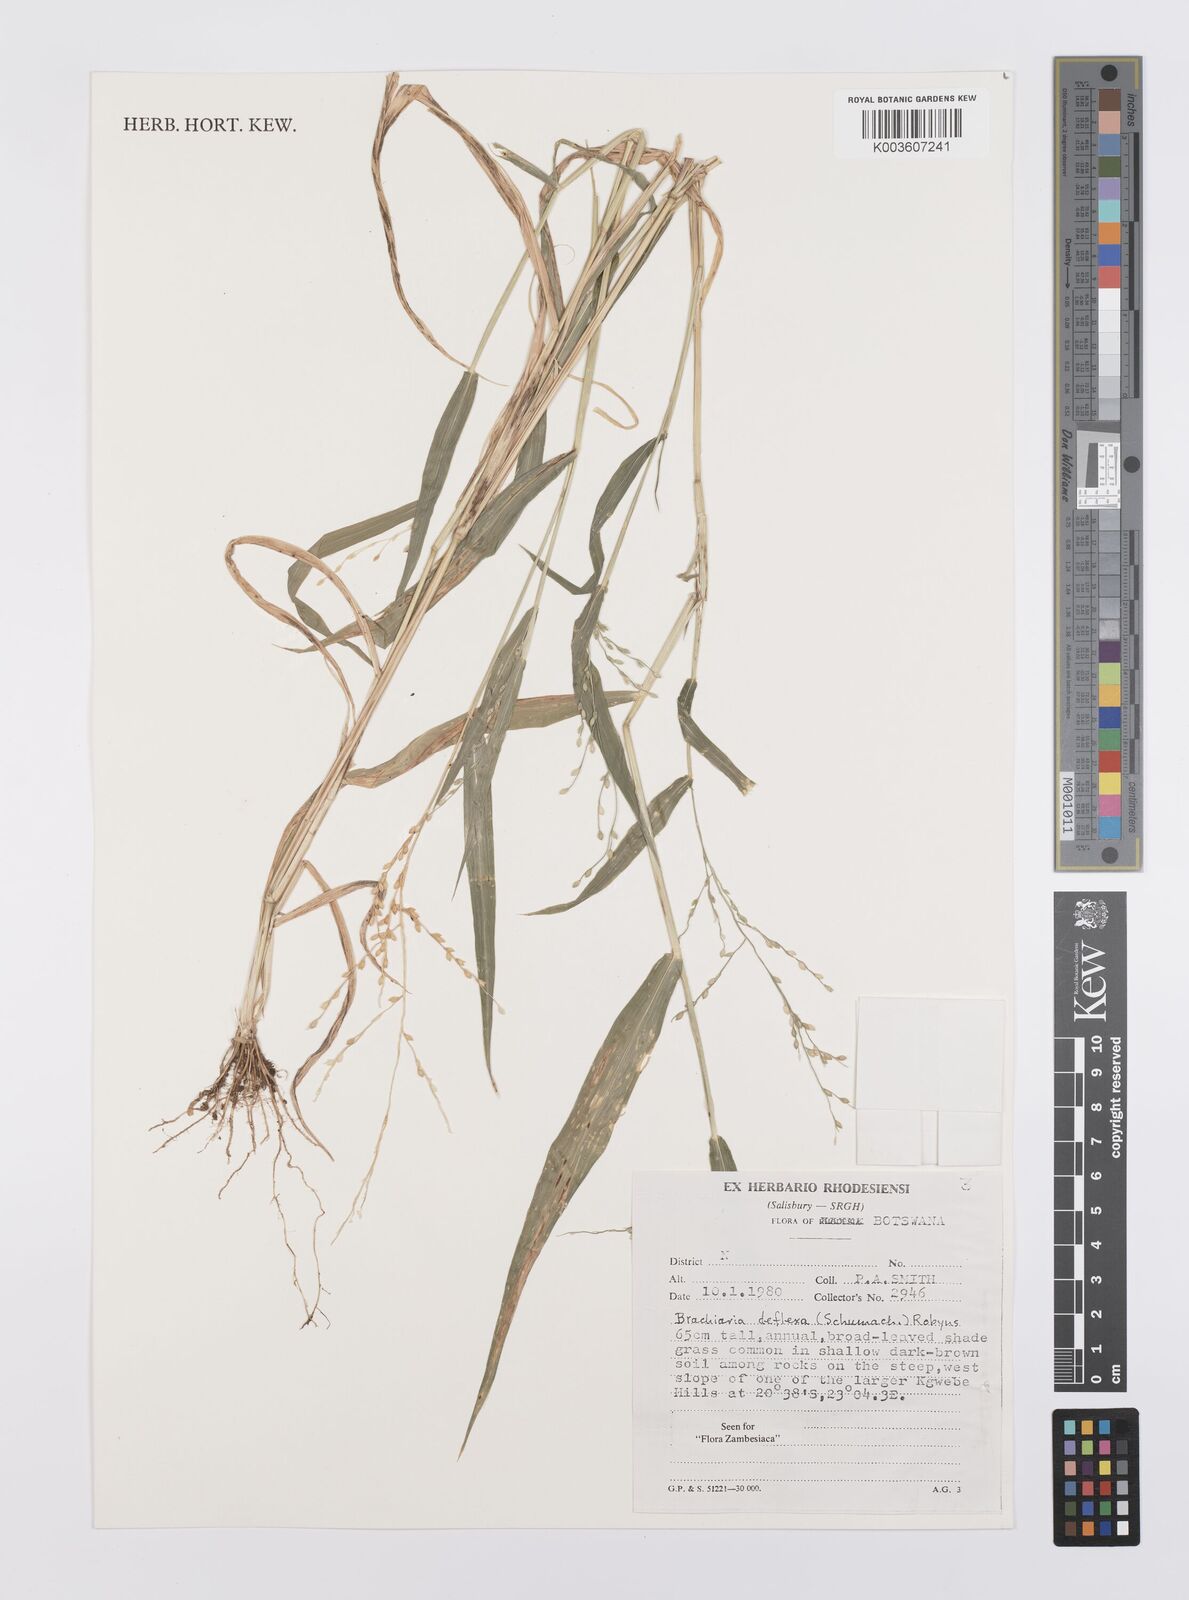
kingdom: Plantae
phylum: Tracheophyta
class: Liliopsida
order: Poales
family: Poaceae
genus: Urochloa
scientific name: Urochloa deflexa
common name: Guinea millet
